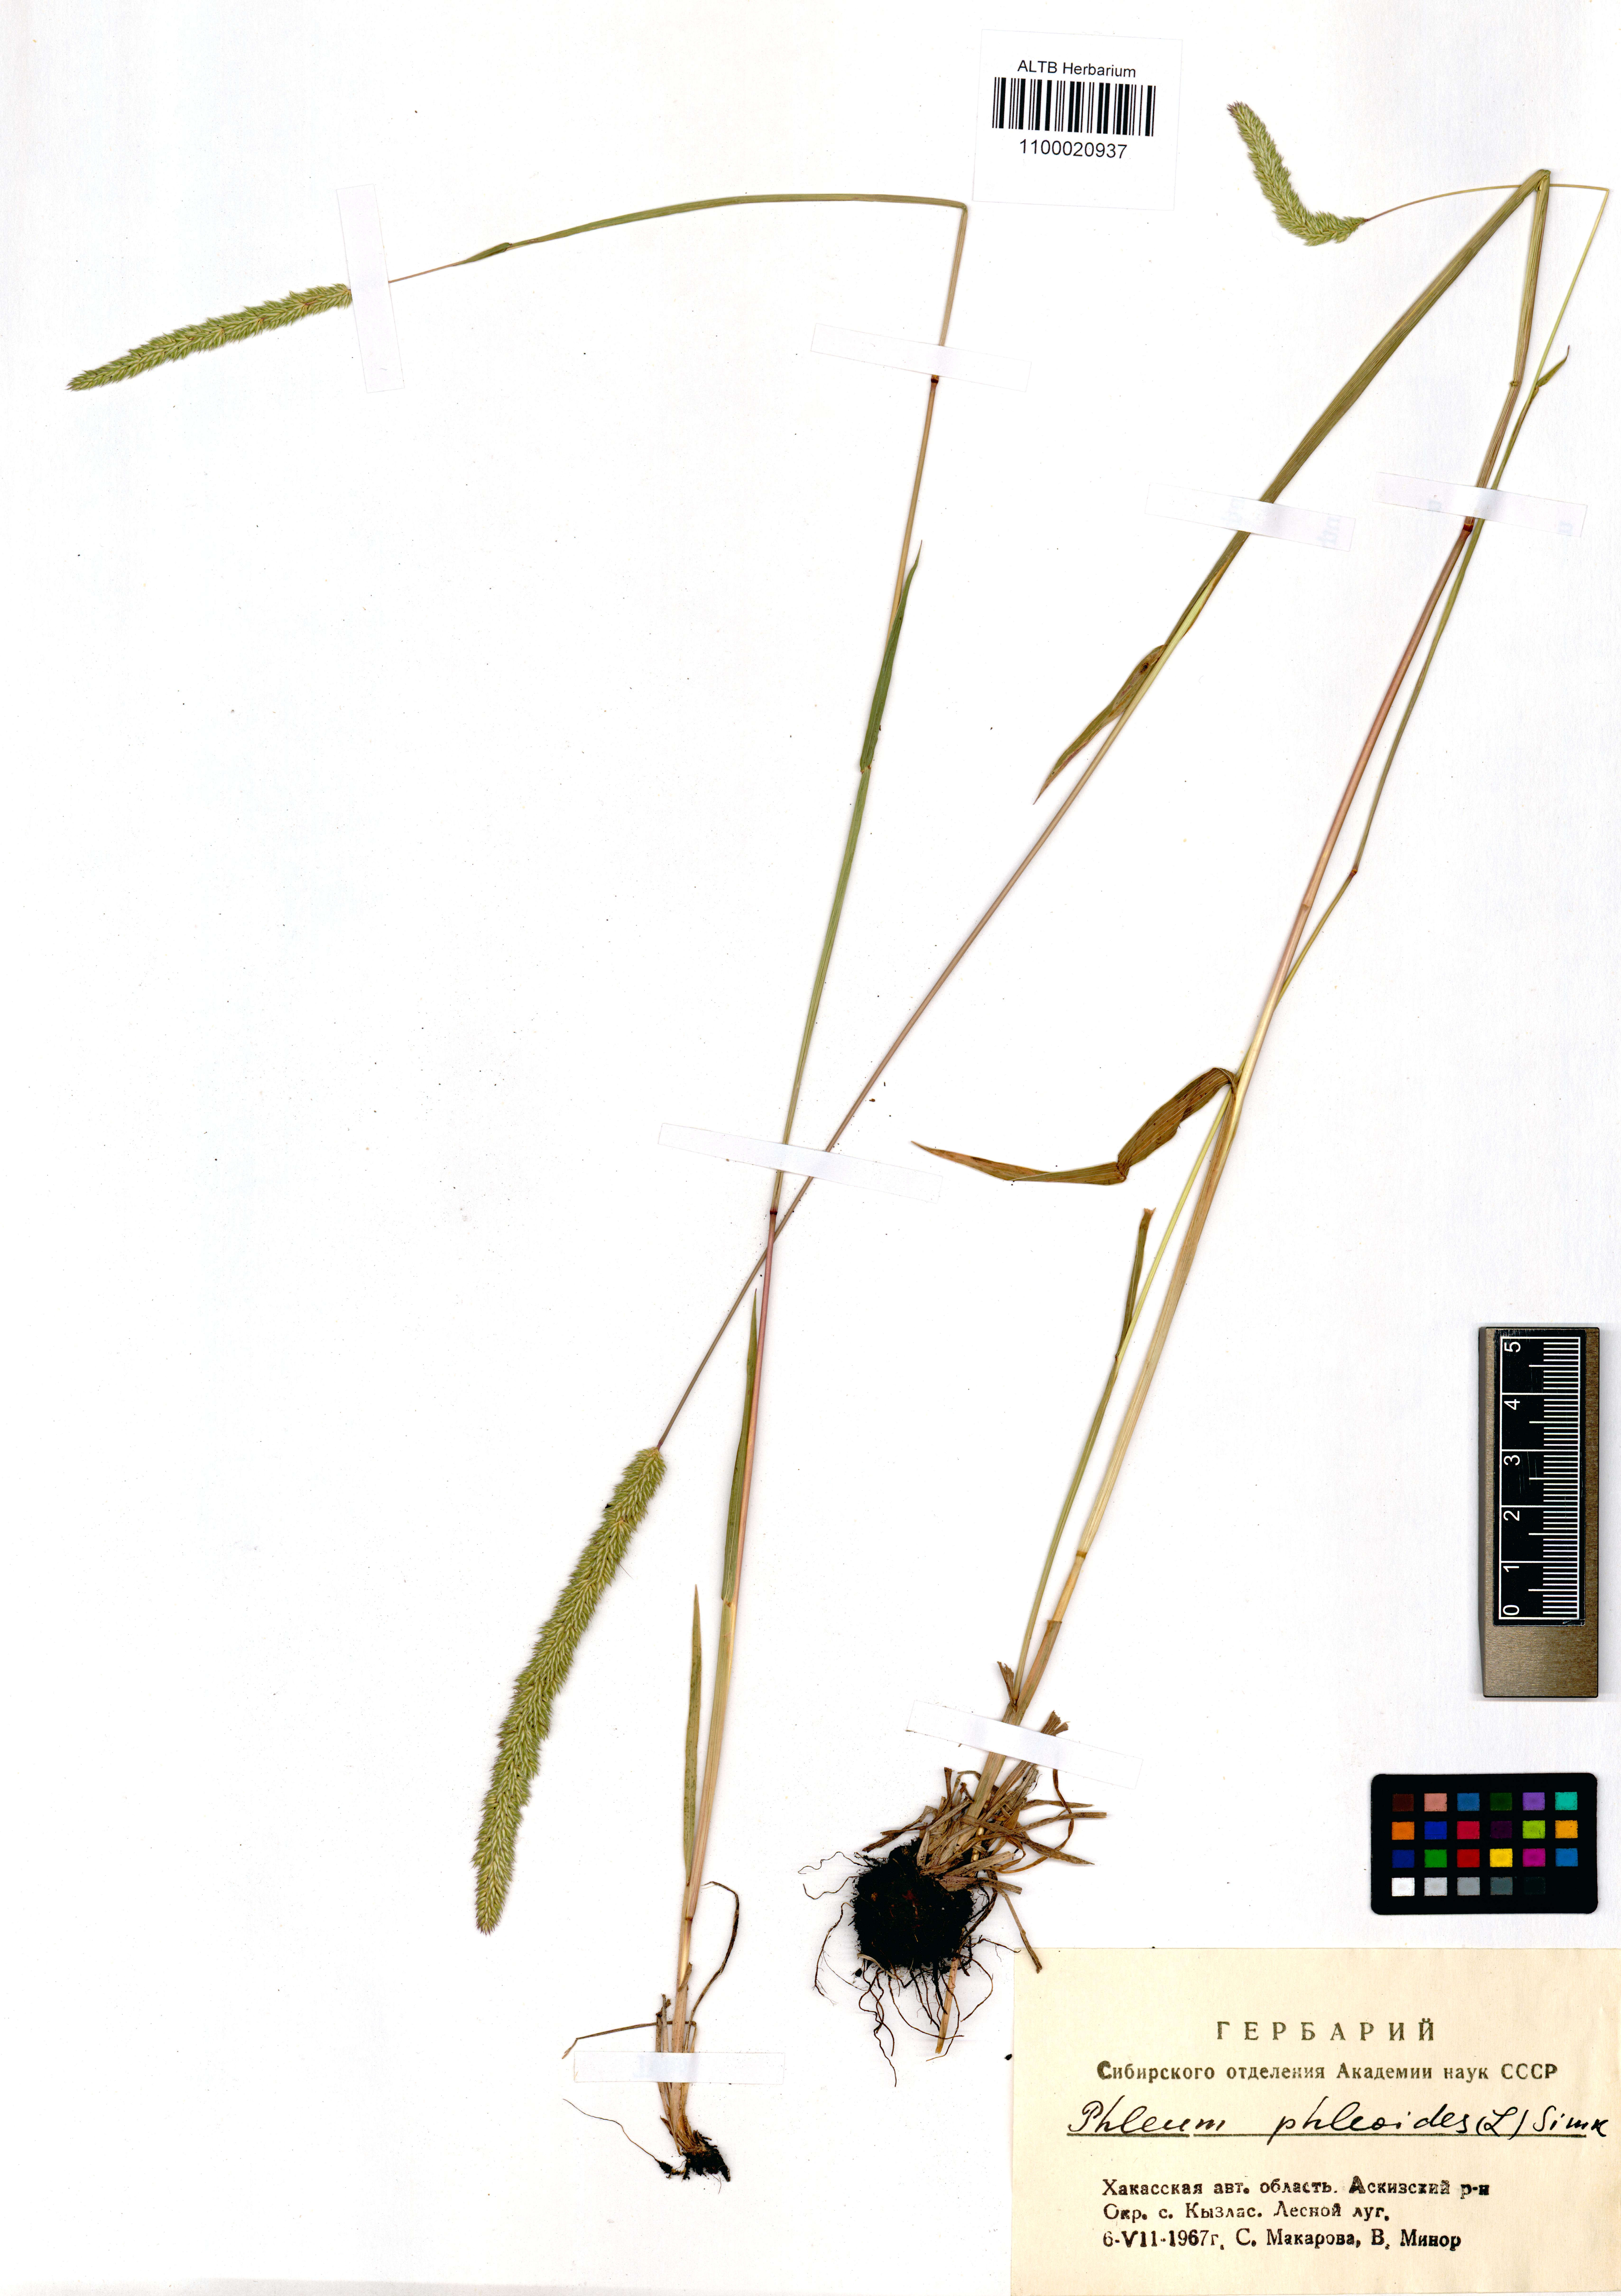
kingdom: Plantae
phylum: Tracheophyta
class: Liliopsida
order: Poales
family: Poaceae
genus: Phleum
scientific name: Phleum phleoides
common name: Purple-stem cat's-tail
